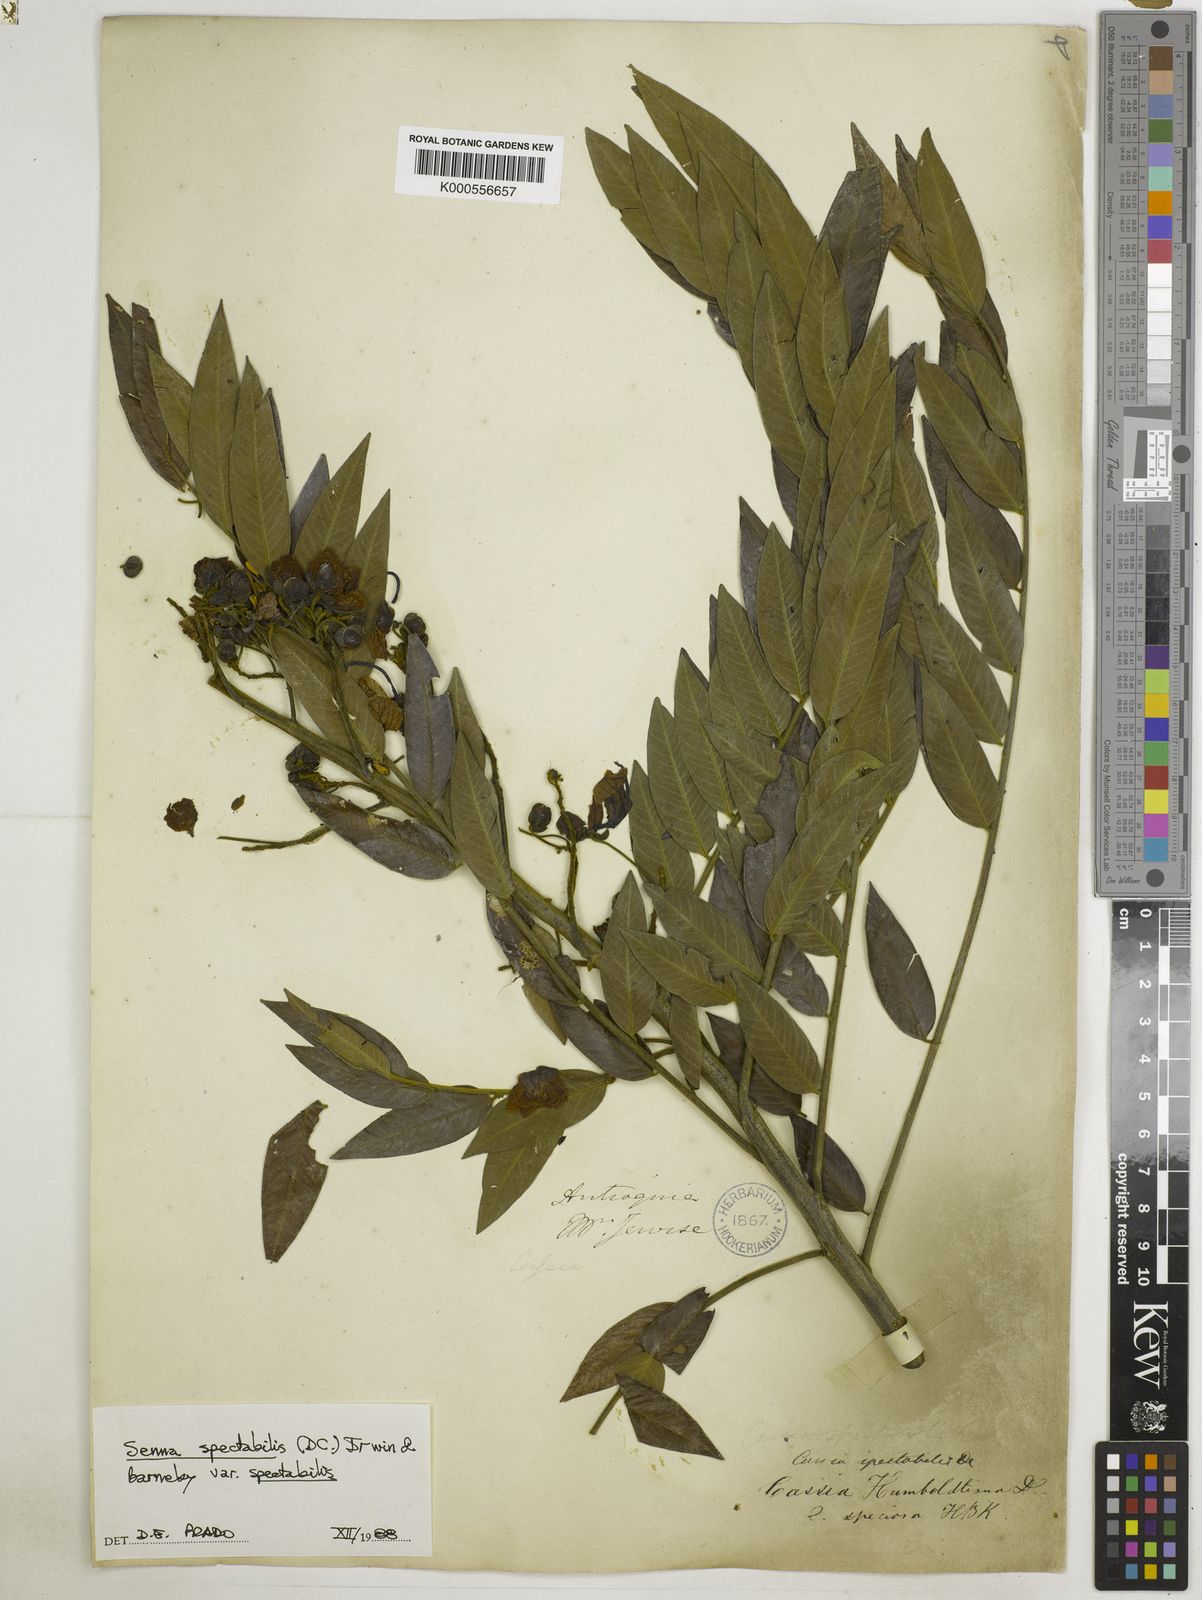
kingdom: Plantae
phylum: Tracheophyta
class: Magnoliopsida
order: Fabales
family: Fabaceae
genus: Senna
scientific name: Senna spectabilis
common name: Casia amarilla
